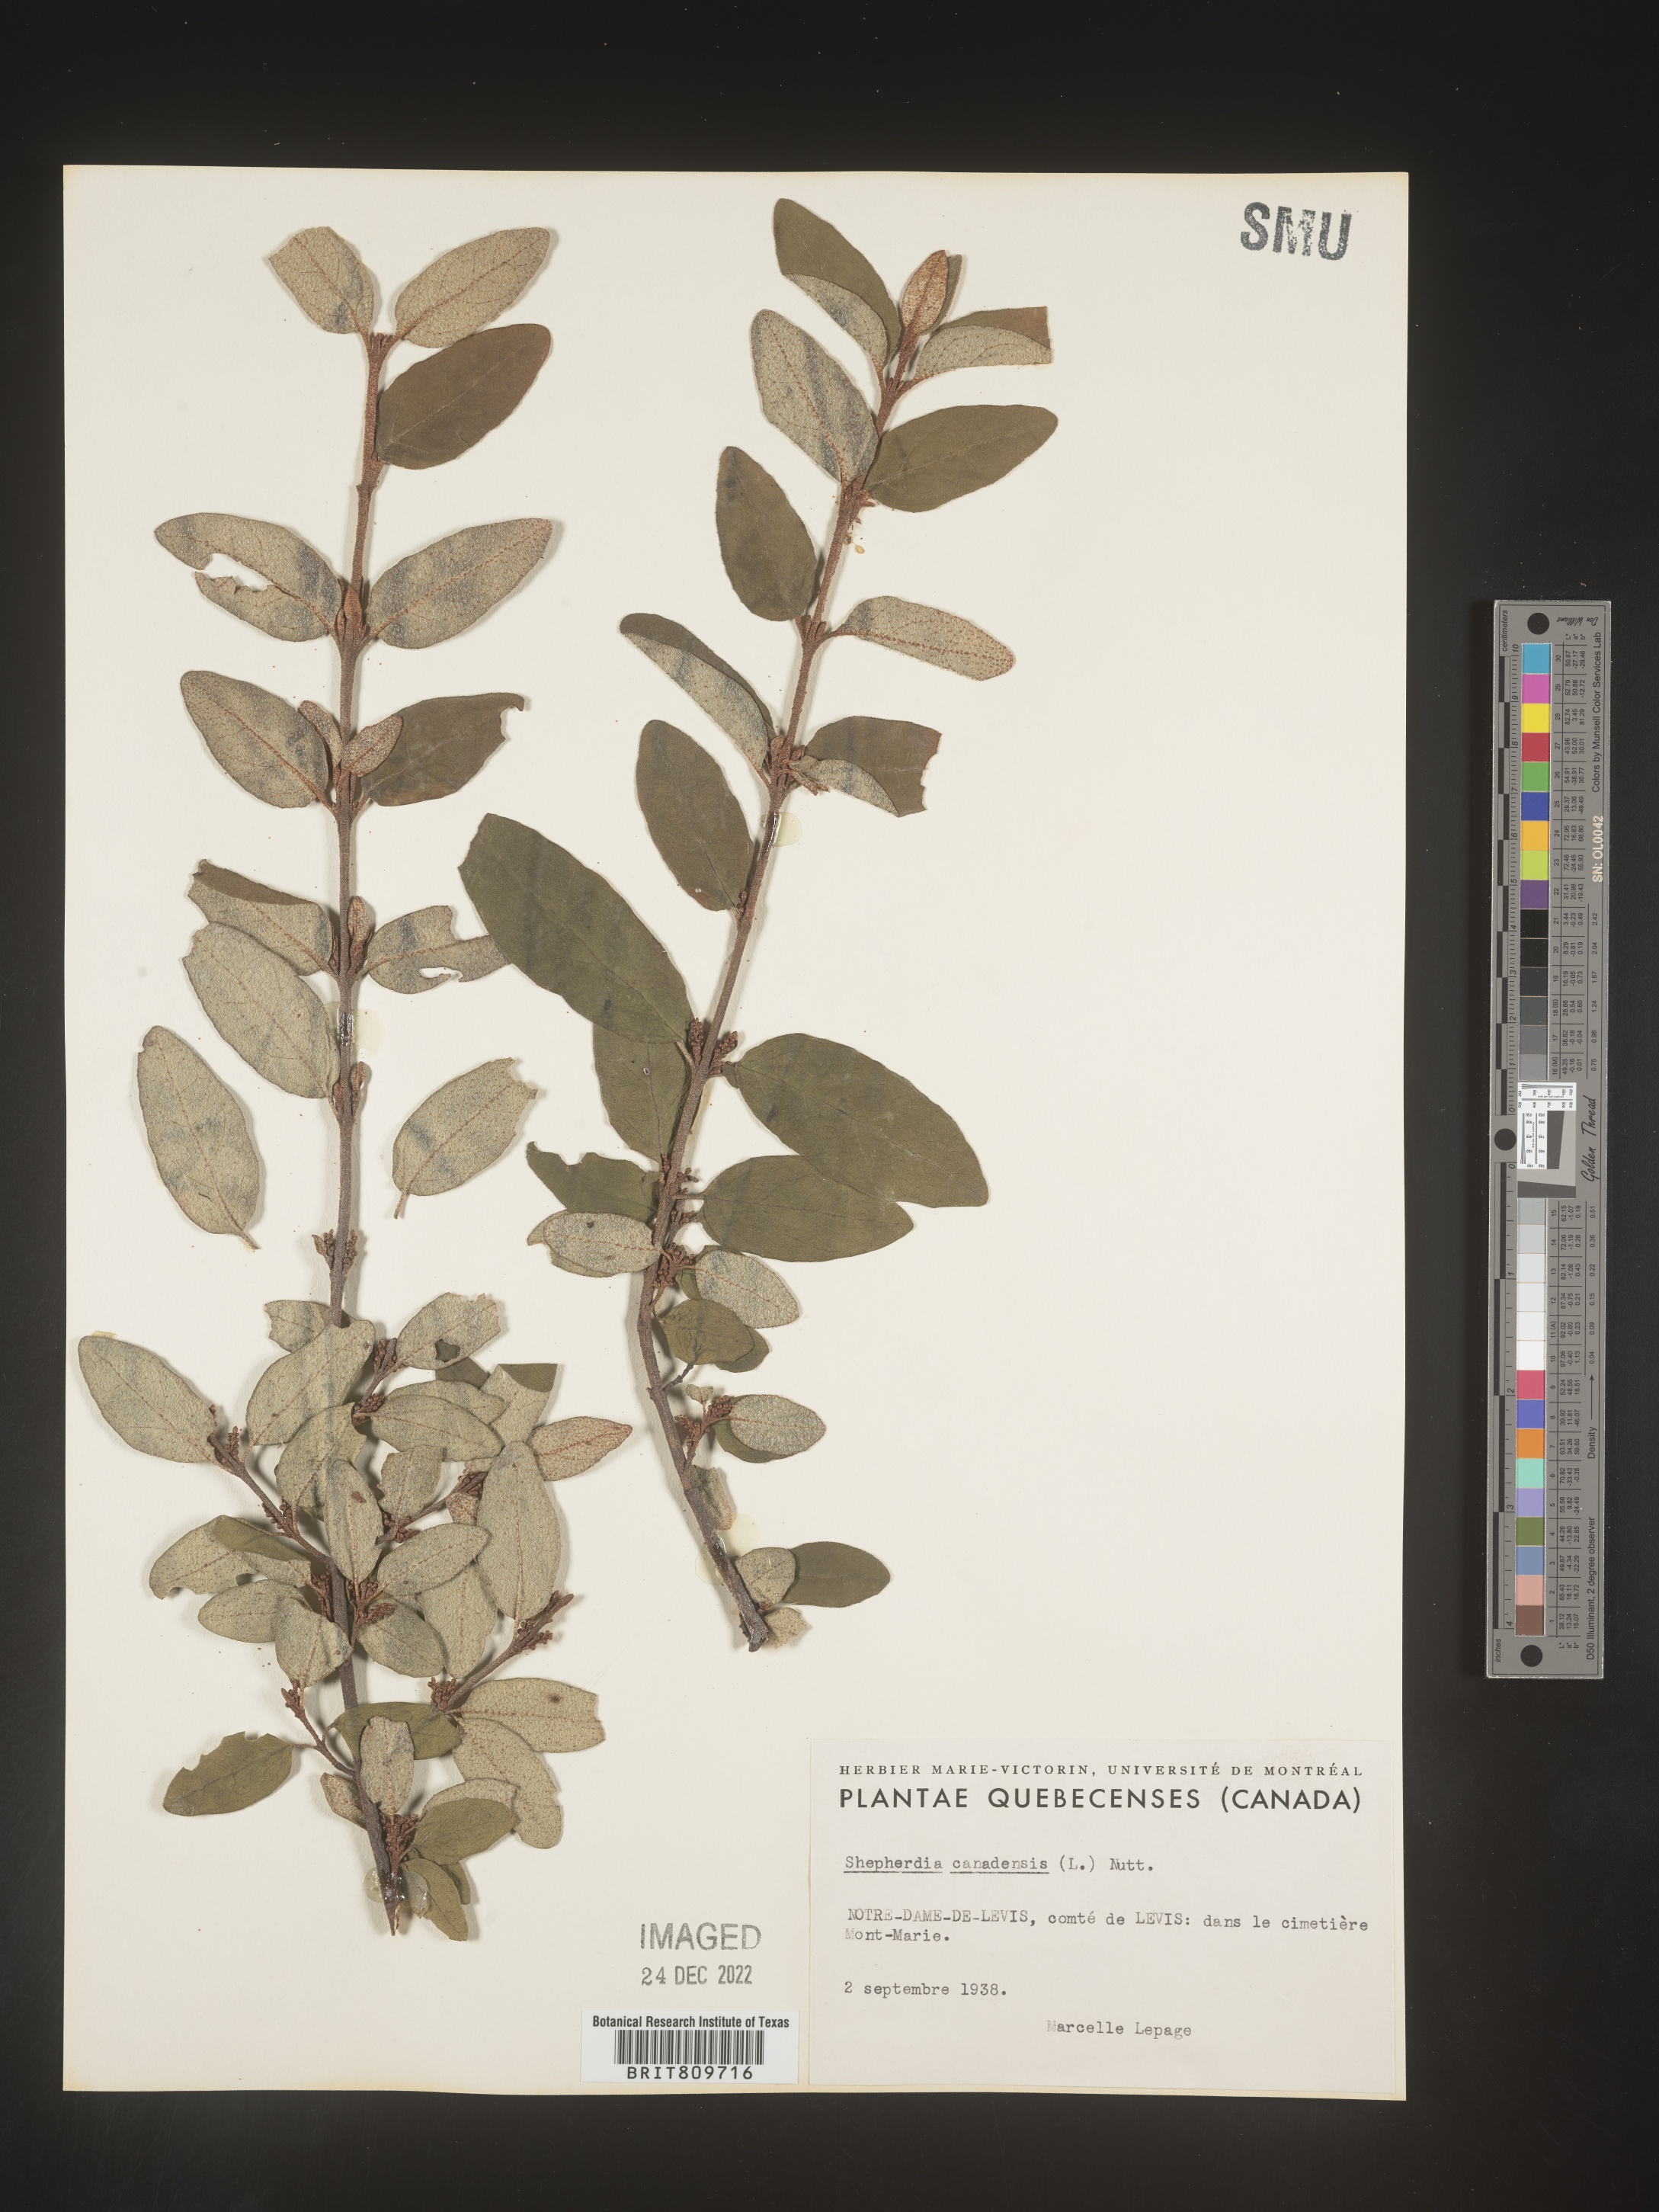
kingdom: Plantae
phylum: Tracheophyta
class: Magnoliopsida
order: Rosales
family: Elaeagnaceae
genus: Shepherdia
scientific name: Shepherdia canadensis
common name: Soapberry
